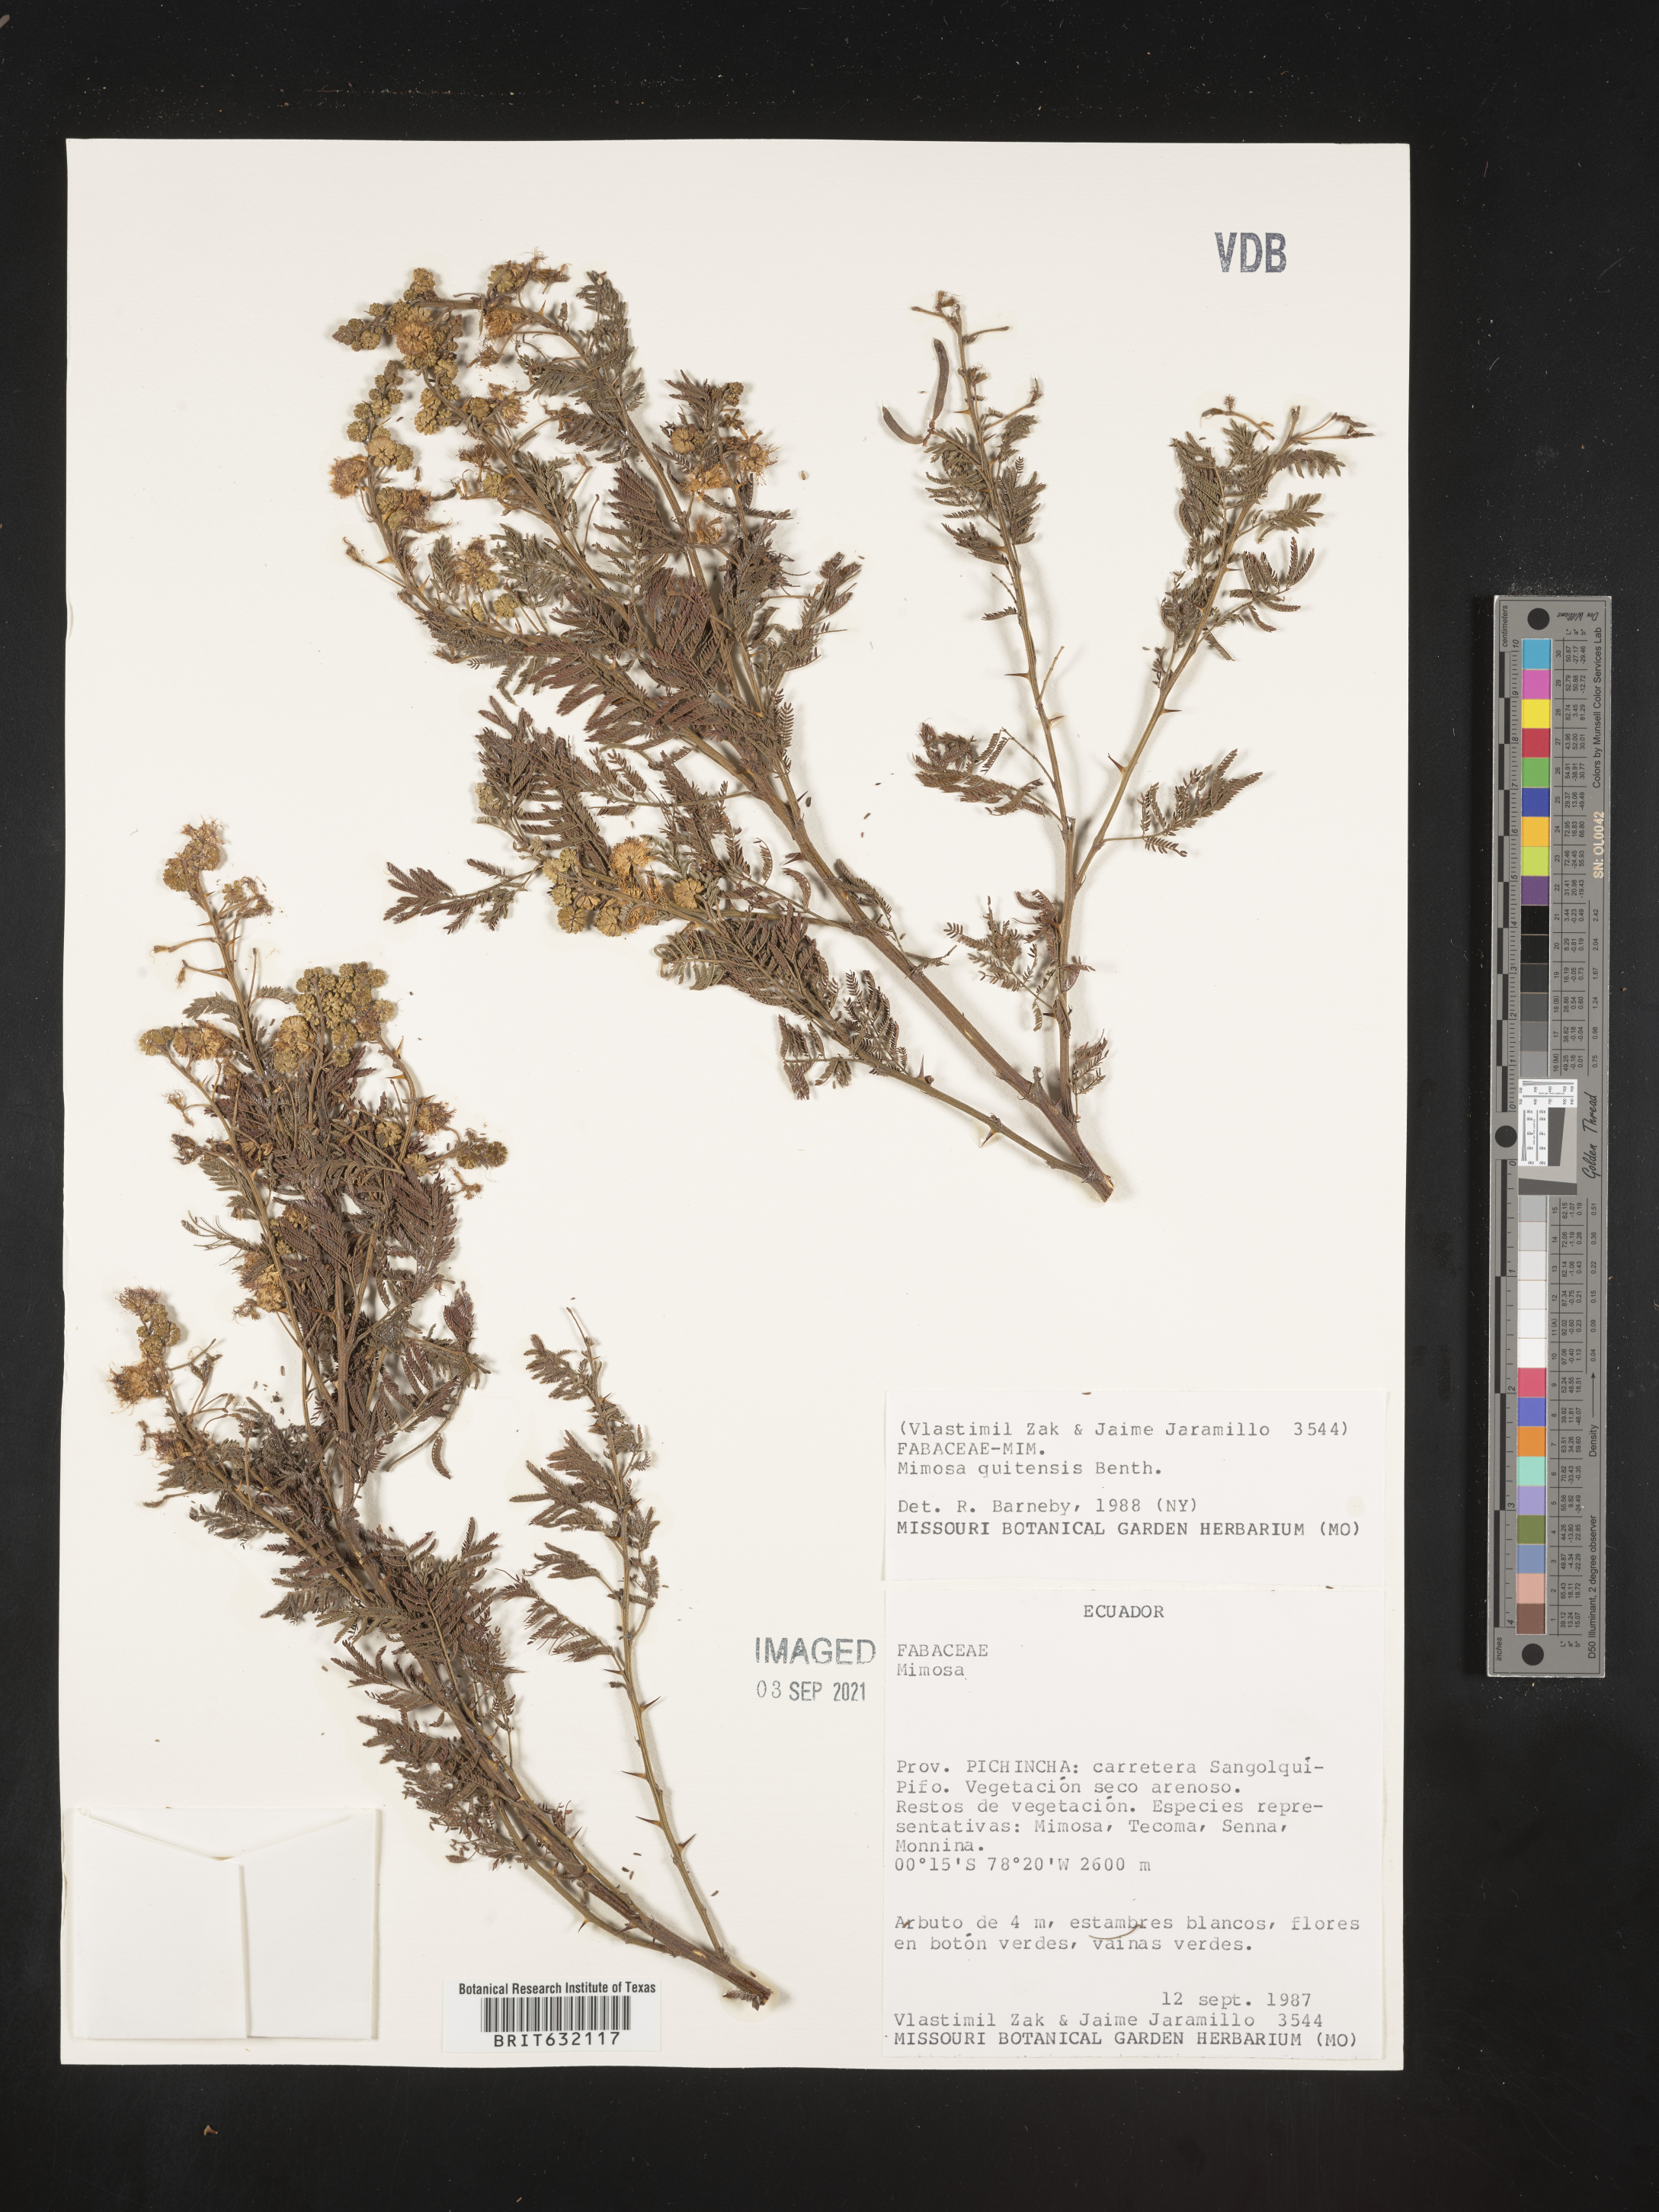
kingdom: Plantae
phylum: Tracheophyta
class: Magnoliopsida
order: Fabales
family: Fabaceae
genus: Mimosa
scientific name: Mimosa
